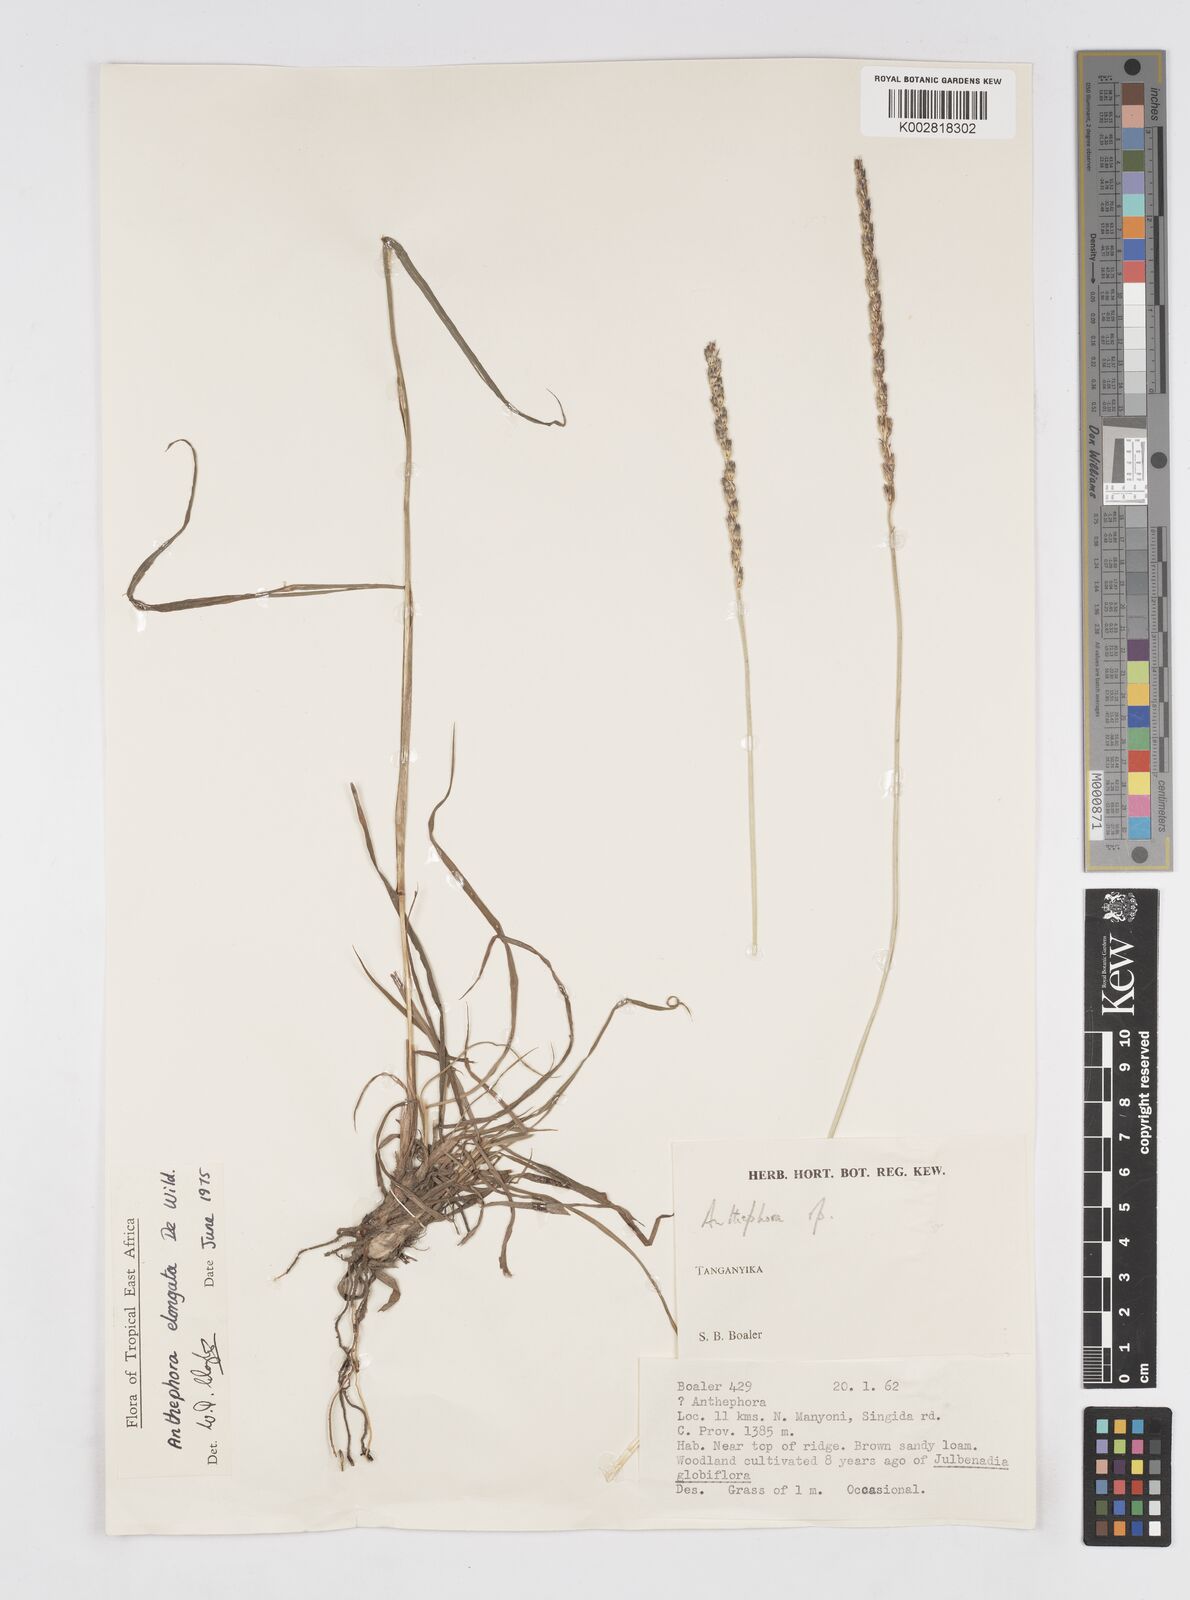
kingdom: Plantae
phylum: Tracheophyta
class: Liliopsida
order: Poales
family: Poaceae
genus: Anthephora
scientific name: Anthephora elongata
